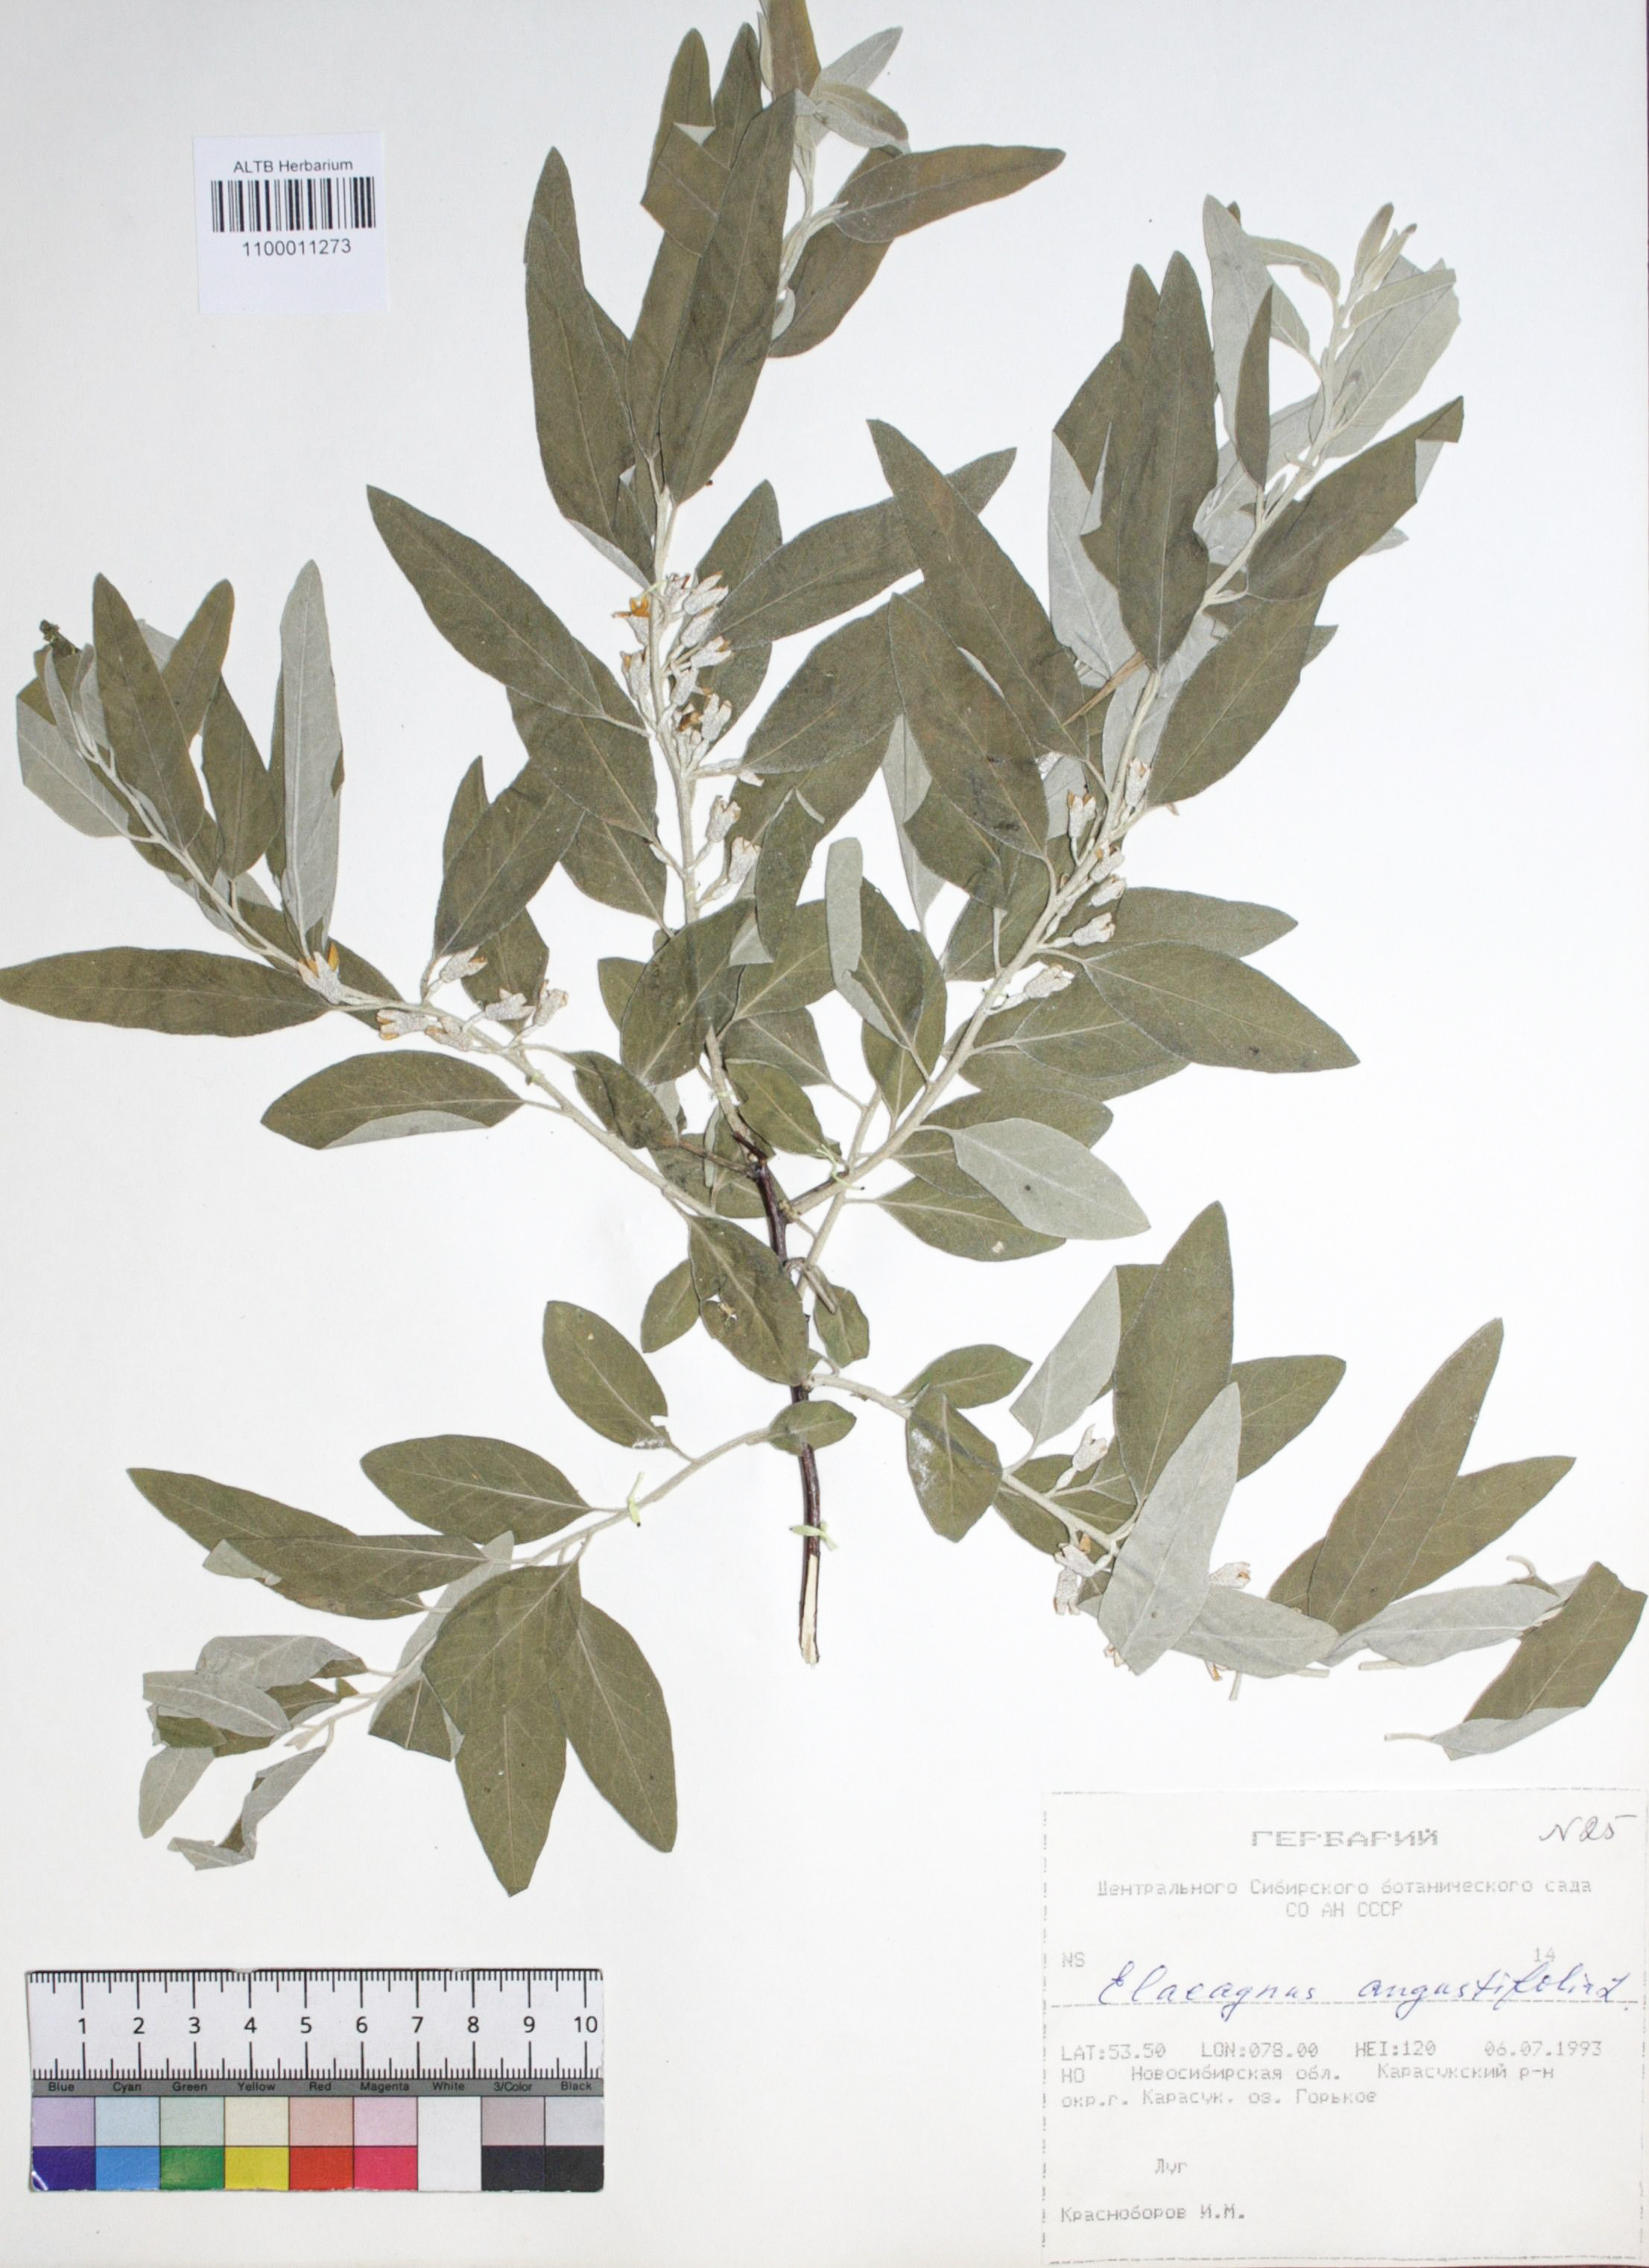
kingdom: Plantae
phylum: Tracheophyta
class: Magnoliopsida
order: Rosales
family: Elaeagnaceae
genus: Elaeagnus
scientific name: Elaeagnus angustifolia
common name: Russian olive
